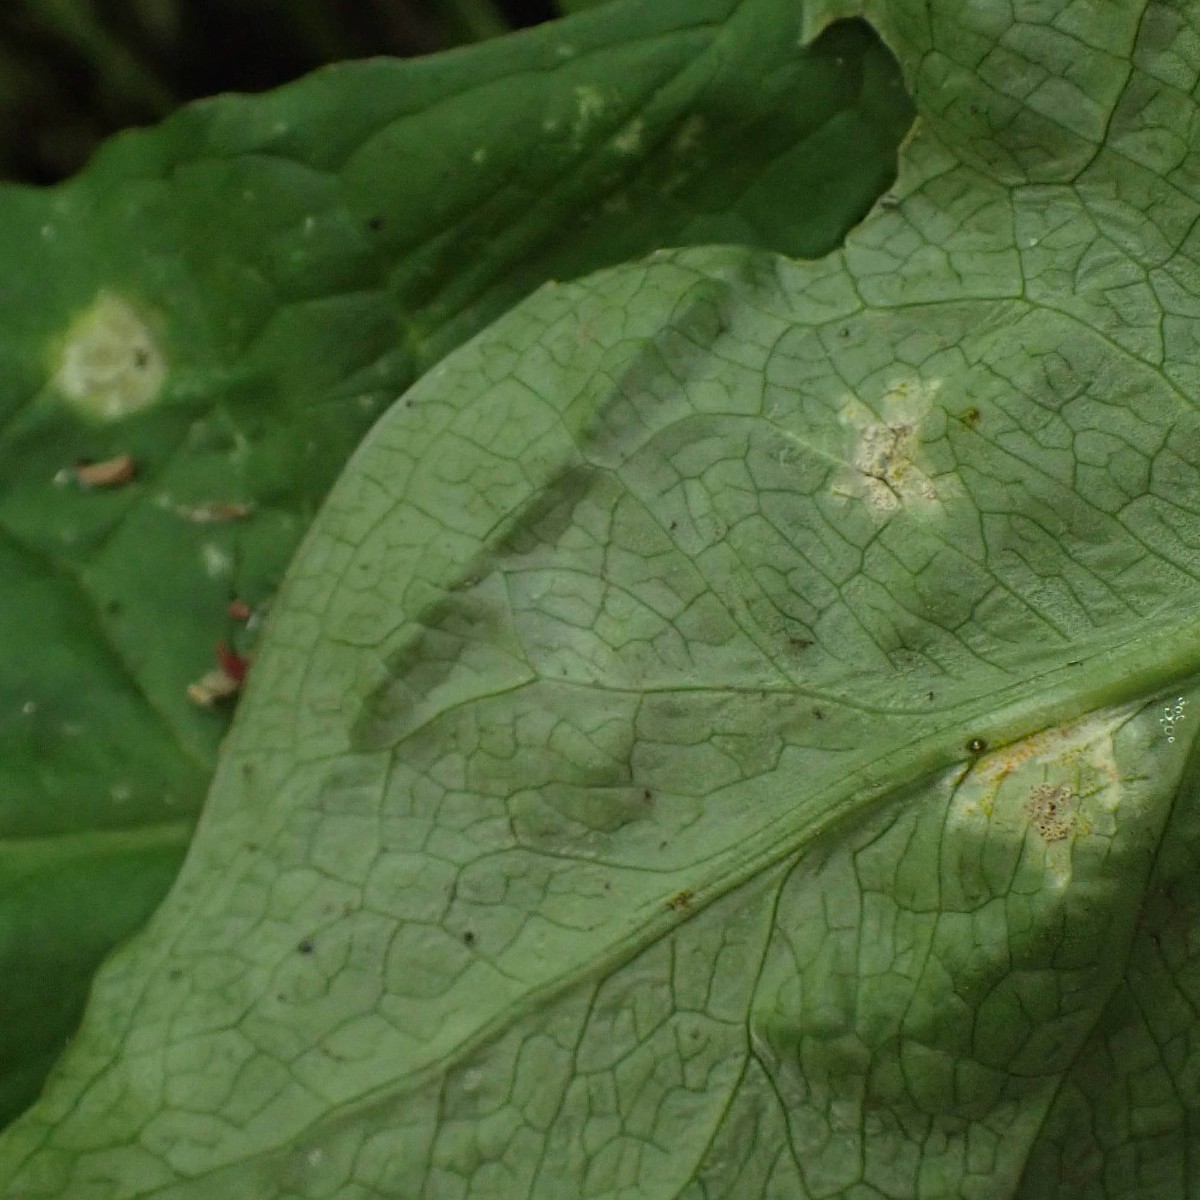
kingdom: Fungi
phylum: Basidiomycota
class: Pucciniomycetes
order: Pucciniales
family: Pucciniaceae
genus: Puccinia
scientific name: Puccinia sessilis
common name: Arum rust
